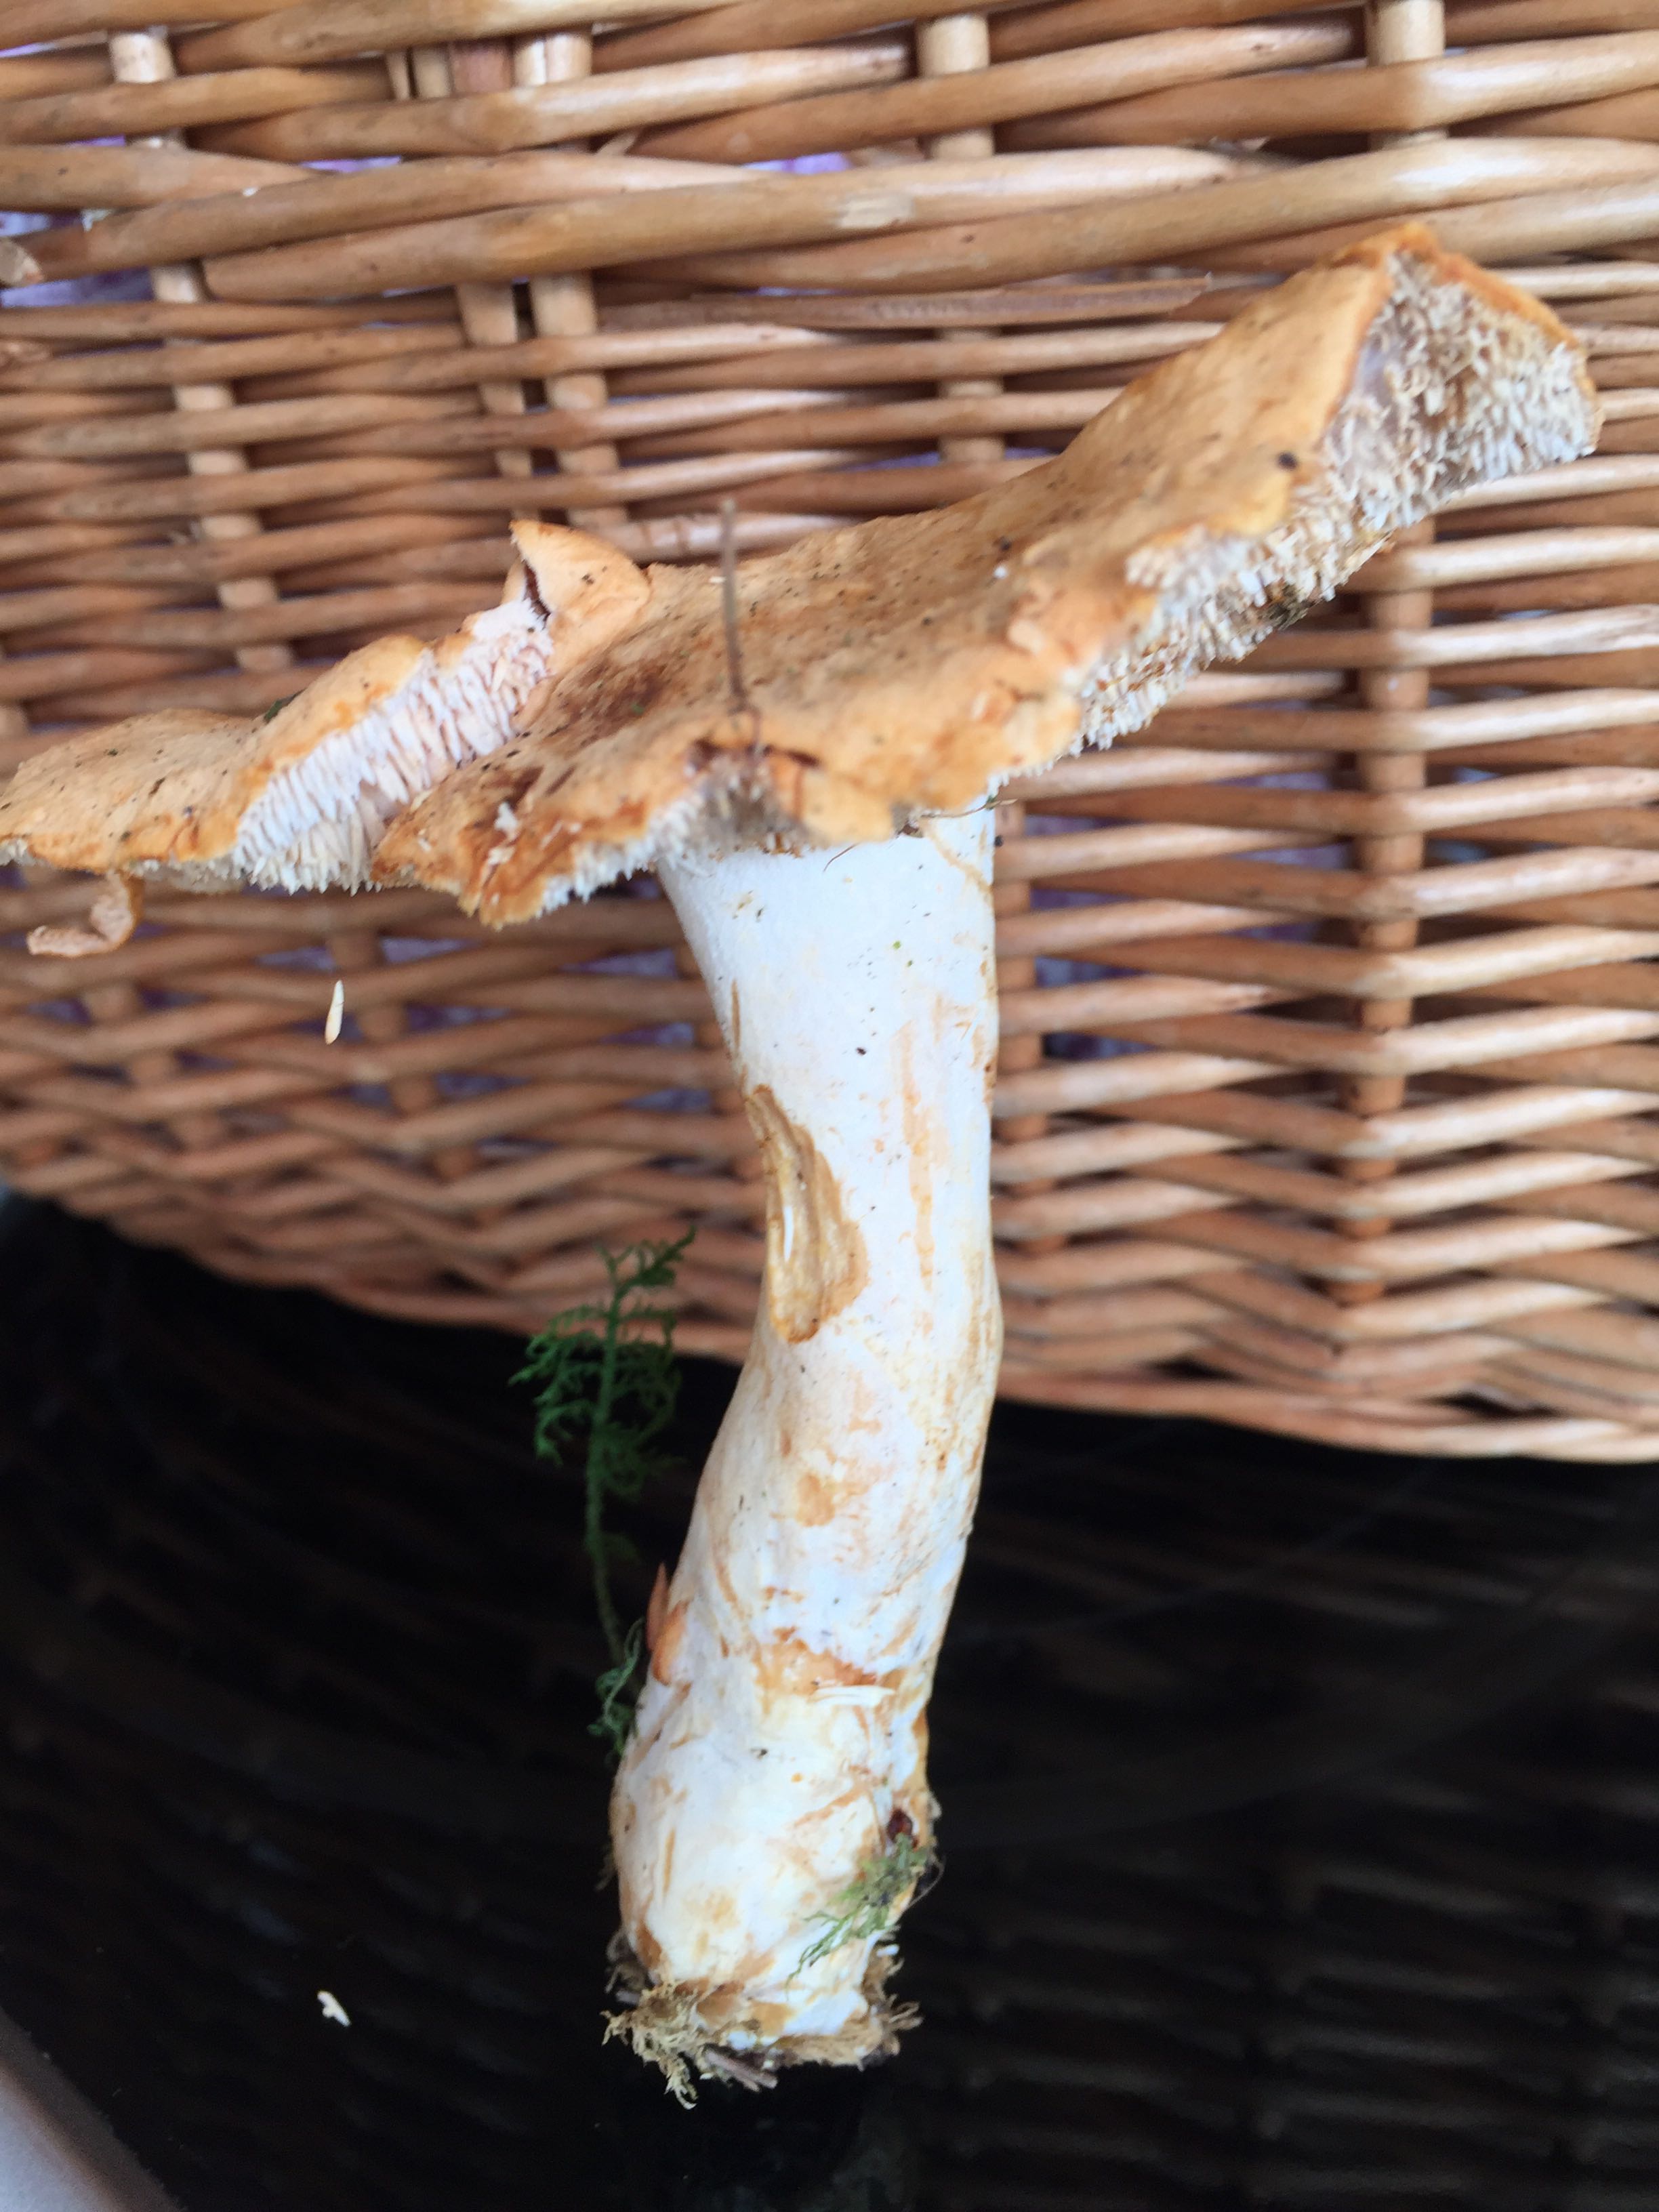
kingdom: Fungi
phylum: Basidiomycota
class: Agaricomycetes
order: Cantharellales
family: Hydnaceae
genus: Hydnum
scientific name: Hydnum
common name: pigsvamp
